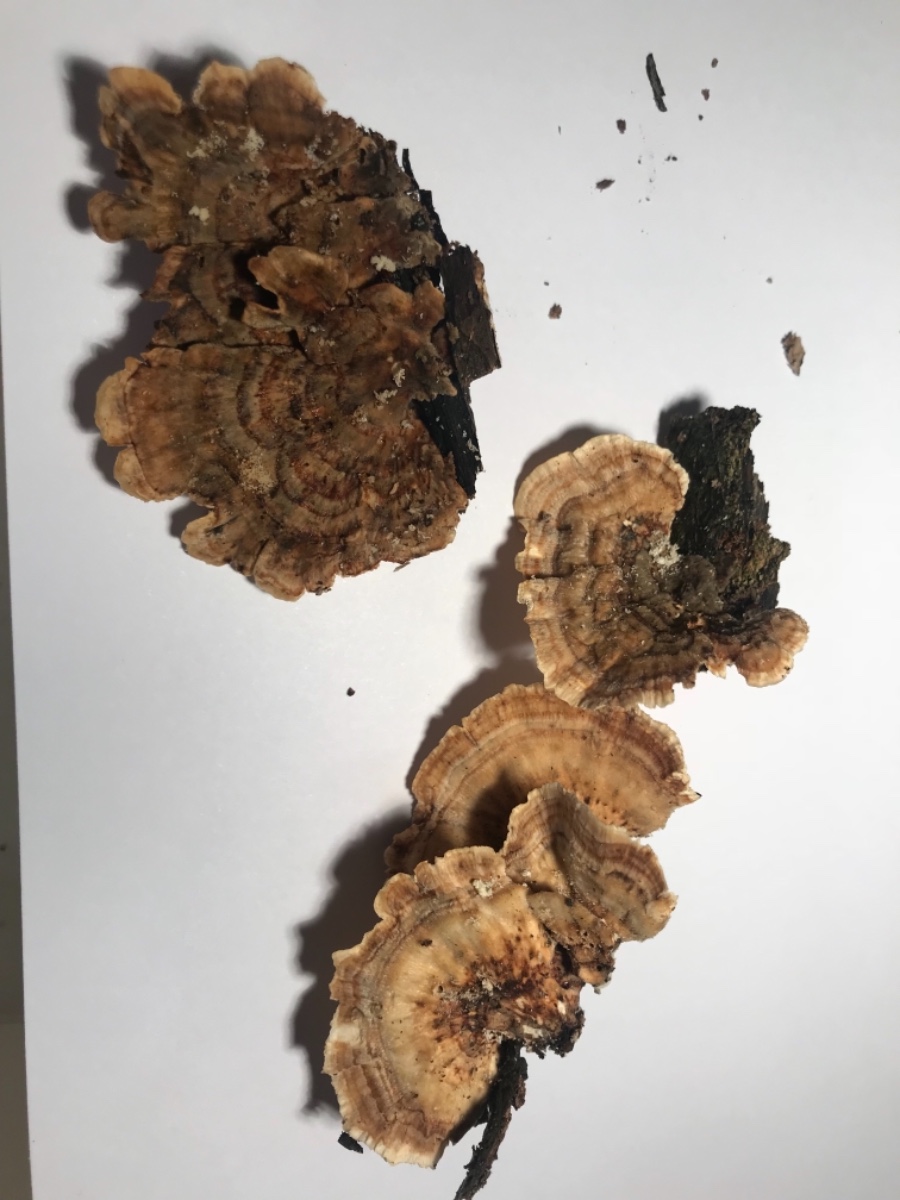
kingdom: Fungi
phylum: Basidiomycota
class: Agaricomycetes
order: Polyporales
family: Polyporaceae
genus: Trametes
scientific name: Trametes versicolor
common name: broget læderporesvamp
